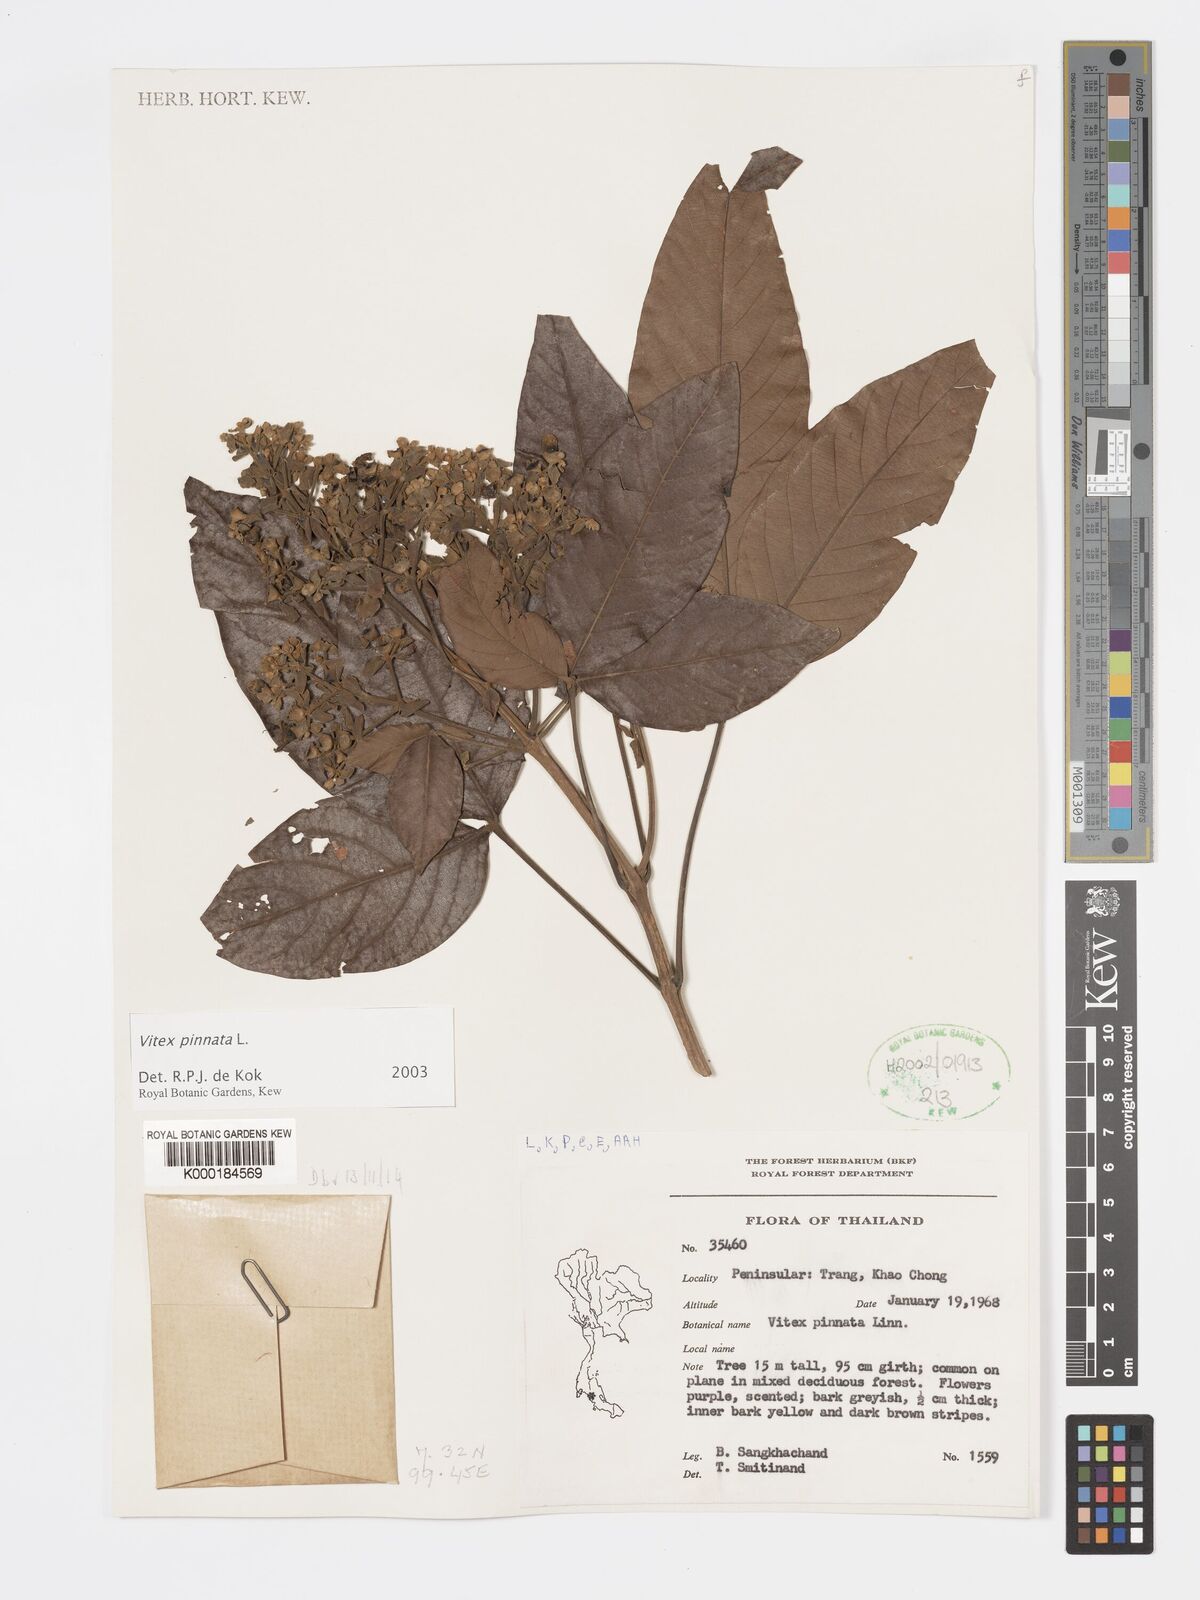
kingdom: Plantae
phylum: Tracheophyta
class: Magnoliopsida
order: Lamiales
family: Lamiaceae
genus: Vitex
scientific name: Vitex pinnata
